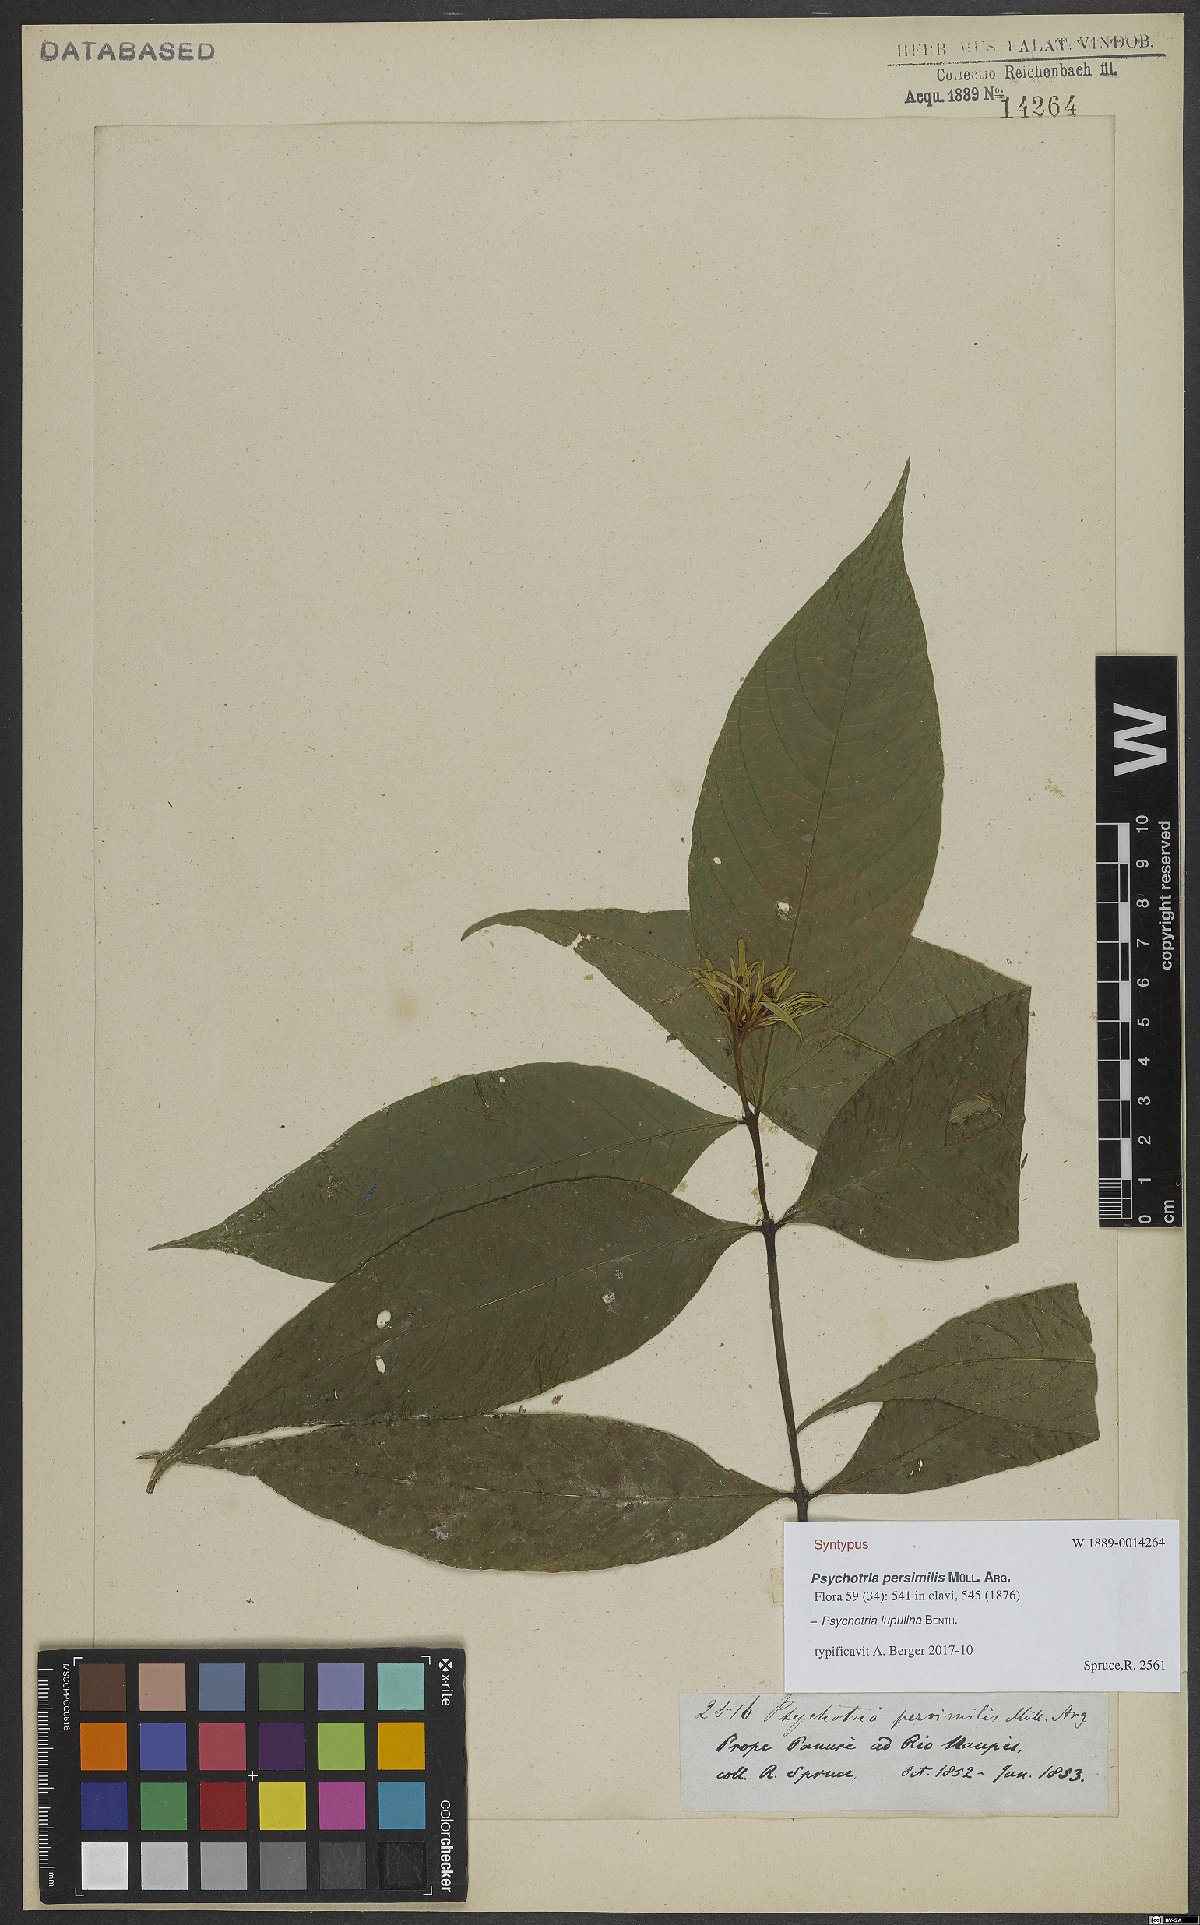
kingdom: Plantae
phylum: Tracheophyta
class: Magnoliopsida
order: Gentianales
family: Rubiaceae
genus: Palicourea
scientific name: Palicourea justiciifolia
